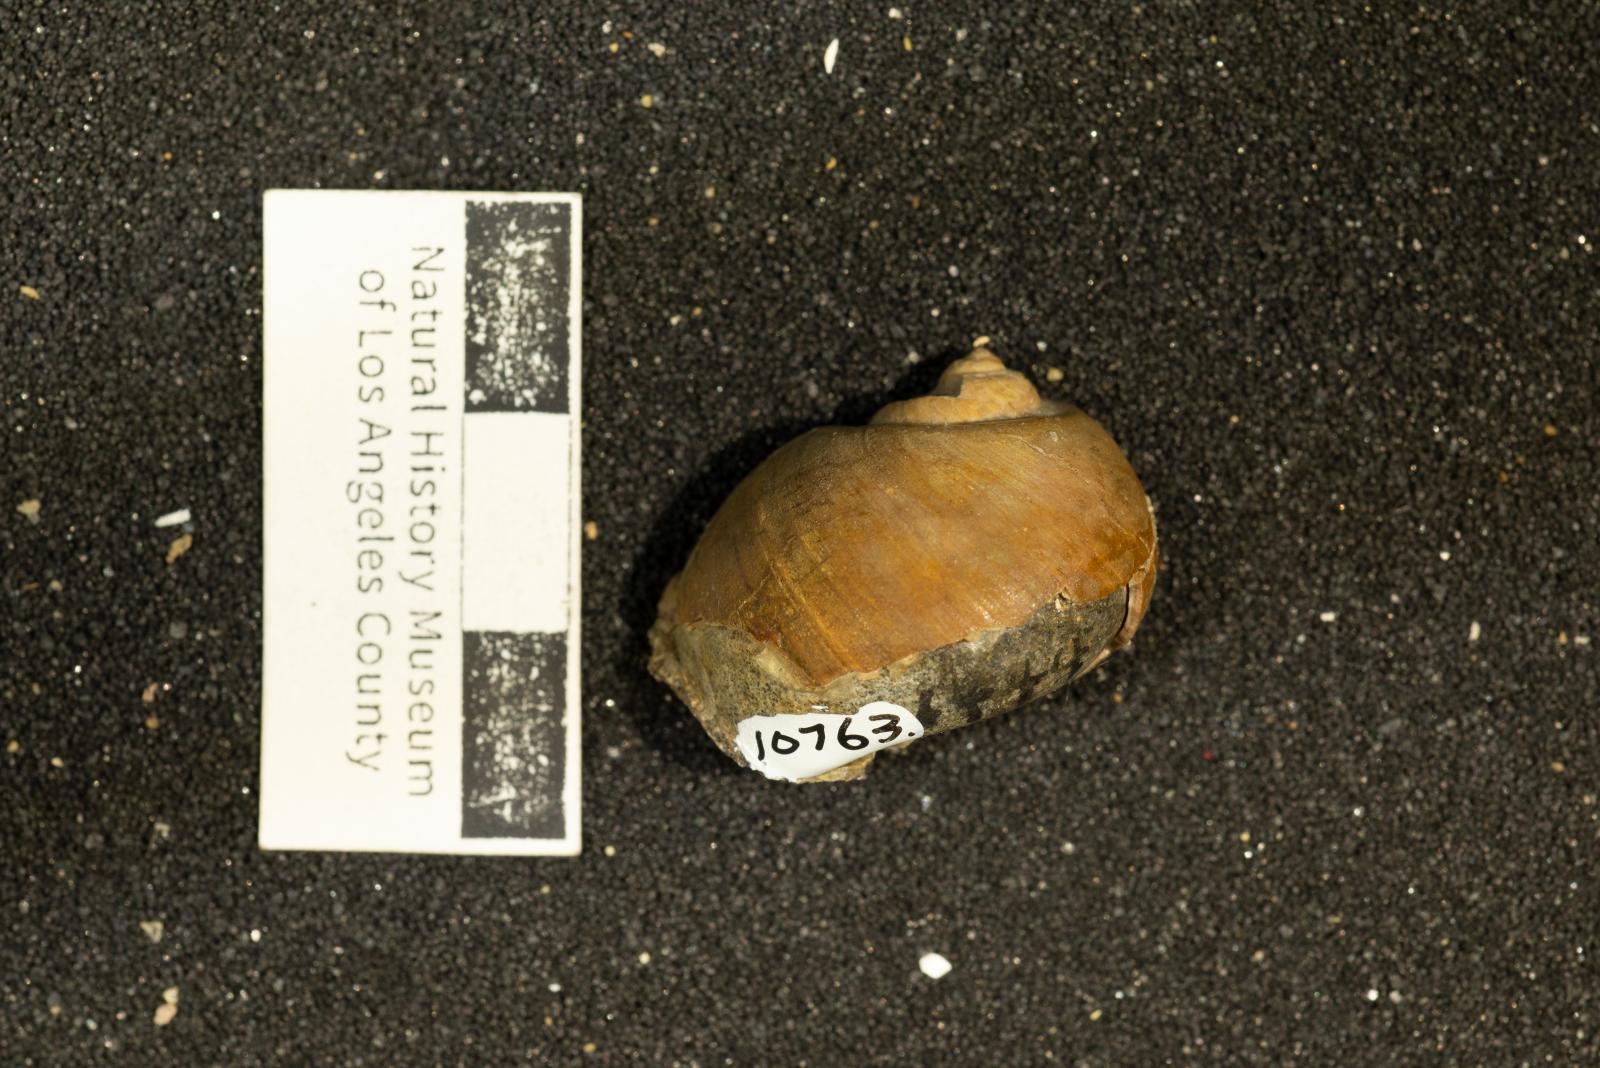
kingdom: Animalia
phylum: Mollusca
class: Gastropoda
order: Littorinimorpha
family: Naticidae
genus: Natica
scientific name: Natica conradiana
